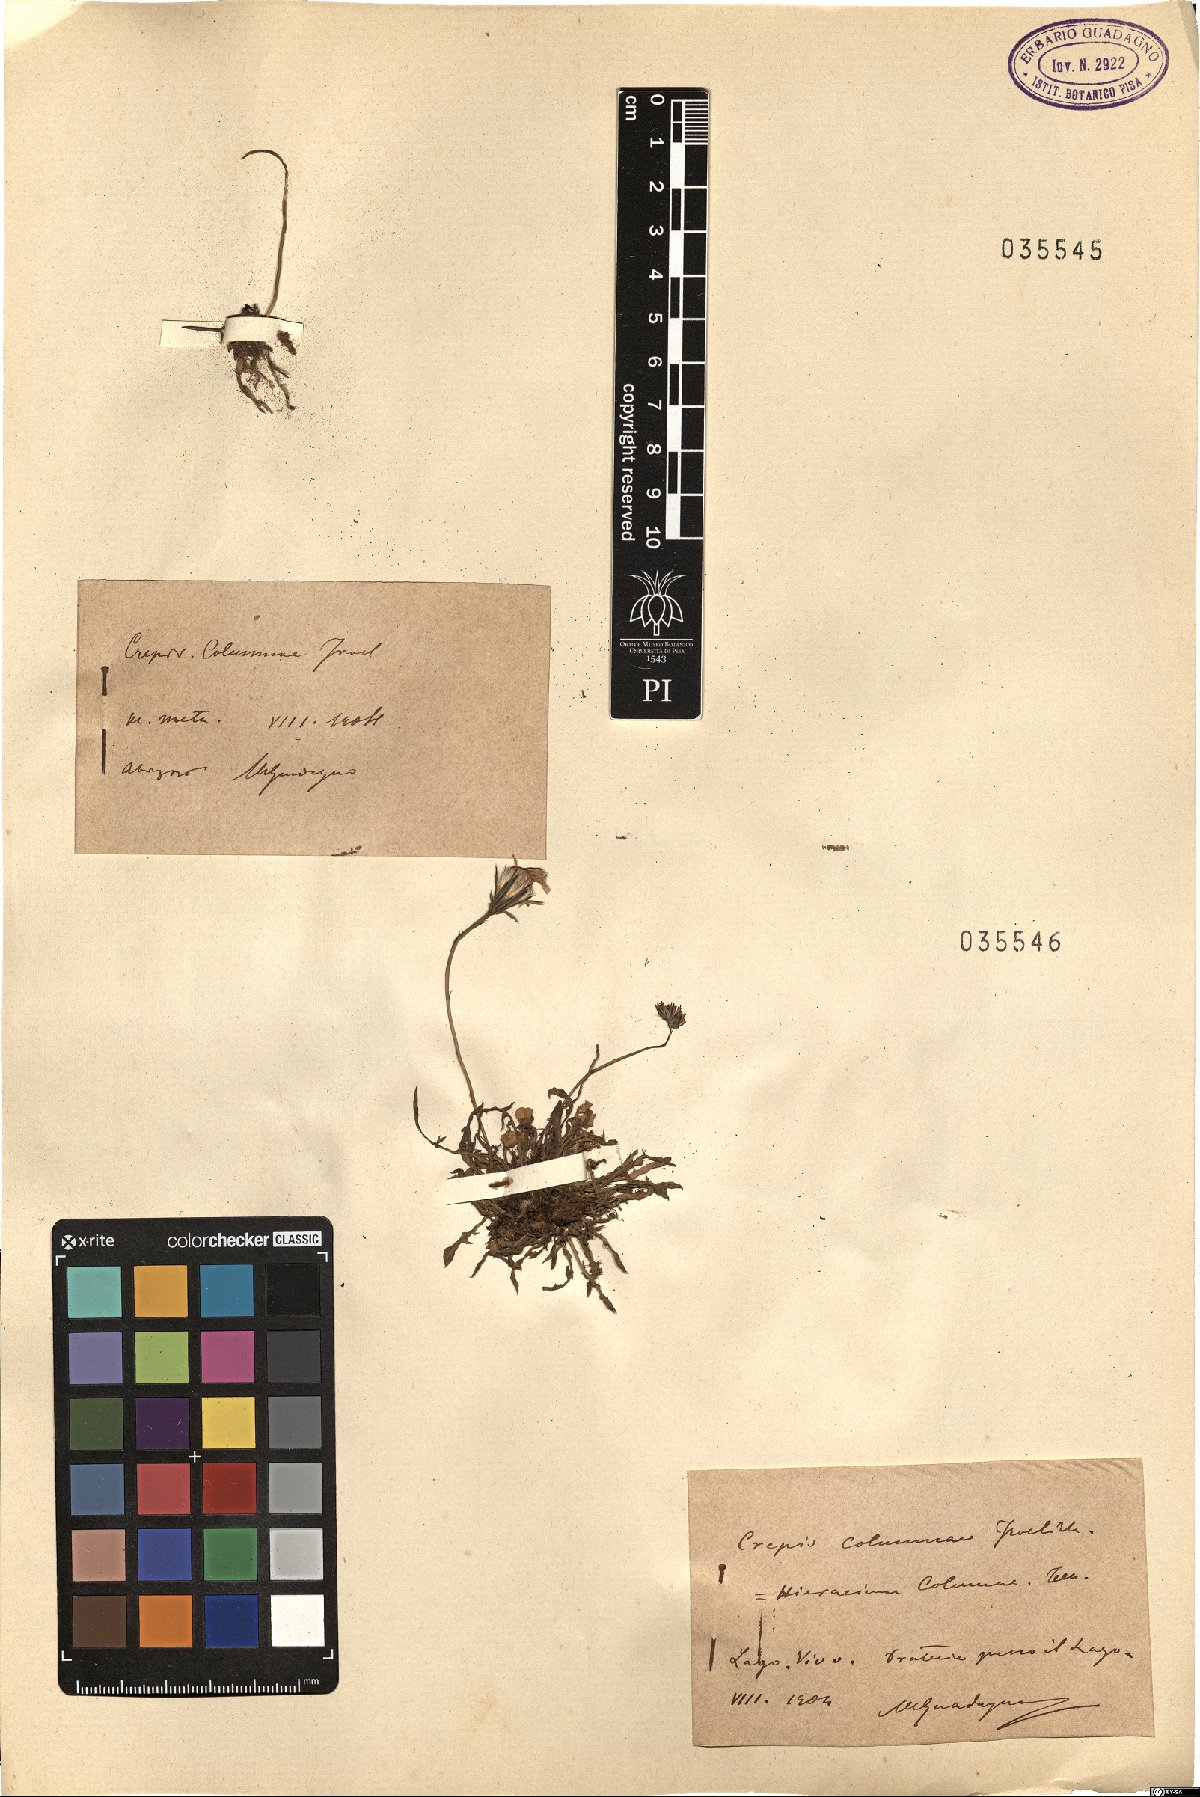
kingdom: Plantae
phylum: Tracheophyta
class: Magnoliopsida
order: Asterales
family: Asteraceae
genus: Crepis
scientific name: Crepis aurea
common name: Golden hawk's-beard
